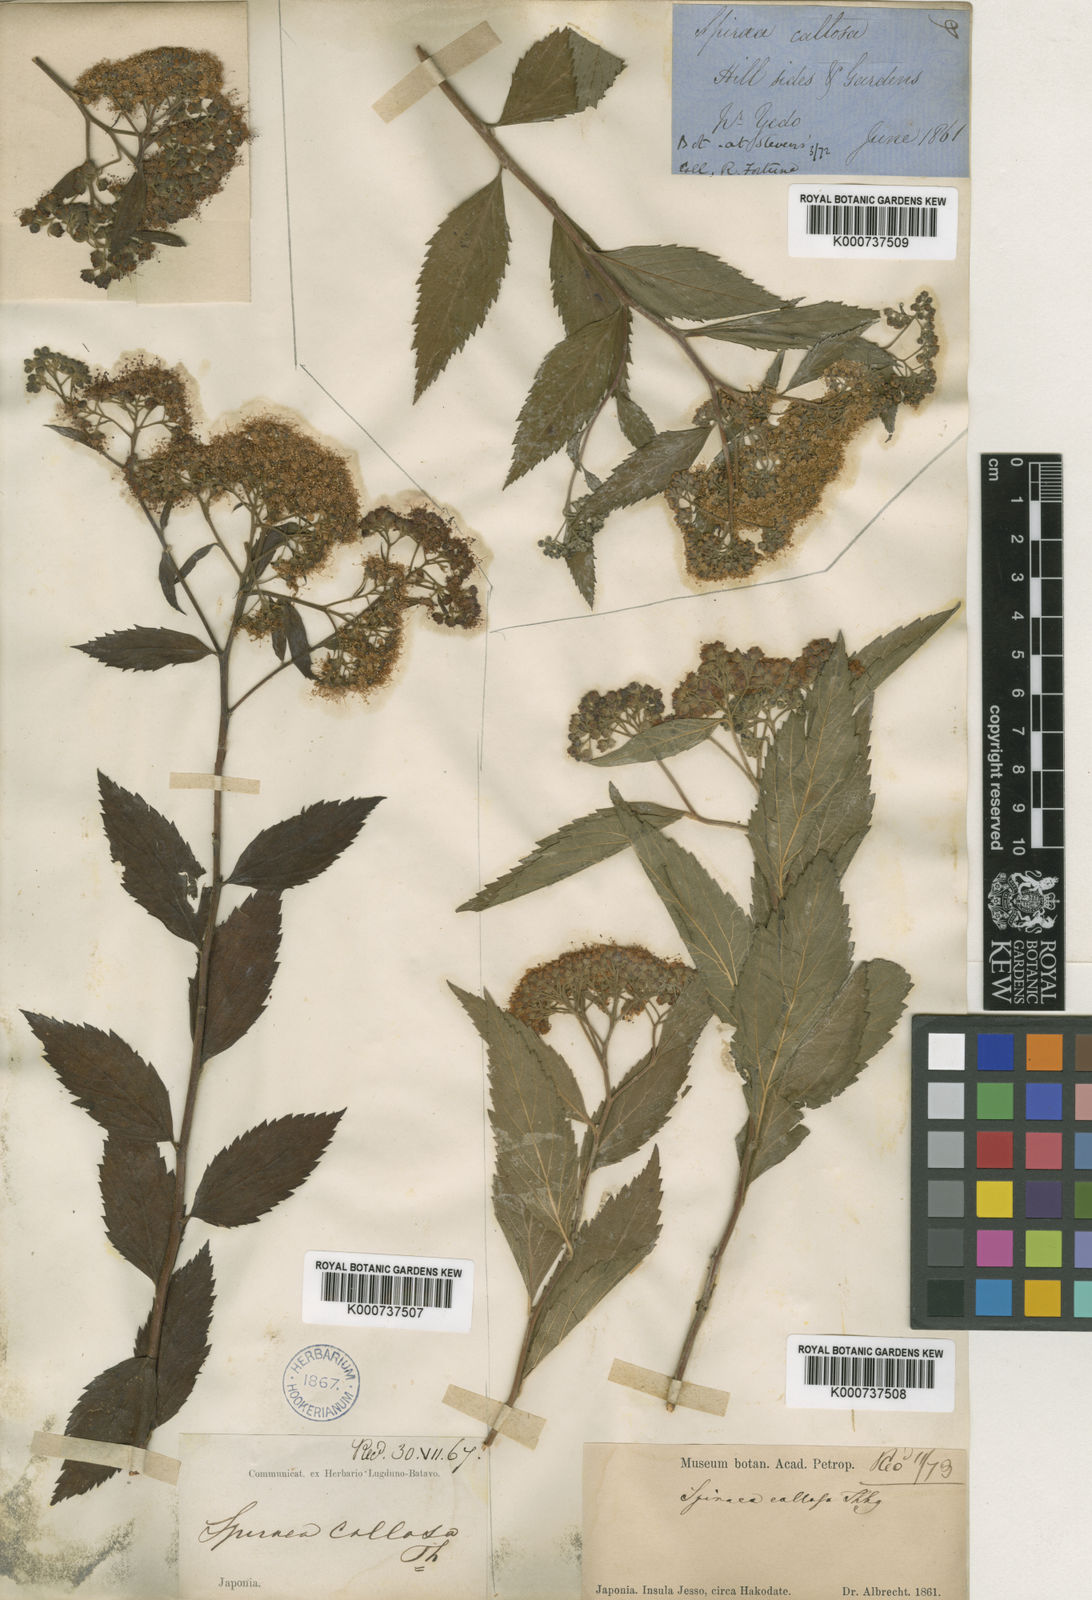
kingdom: Plantae
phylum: Tracheophyta
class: Magnoliopsida
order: Rosales
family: Rosaceae
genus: Spiraea
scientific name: Spiraea japonica
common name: Japanese spiraea
